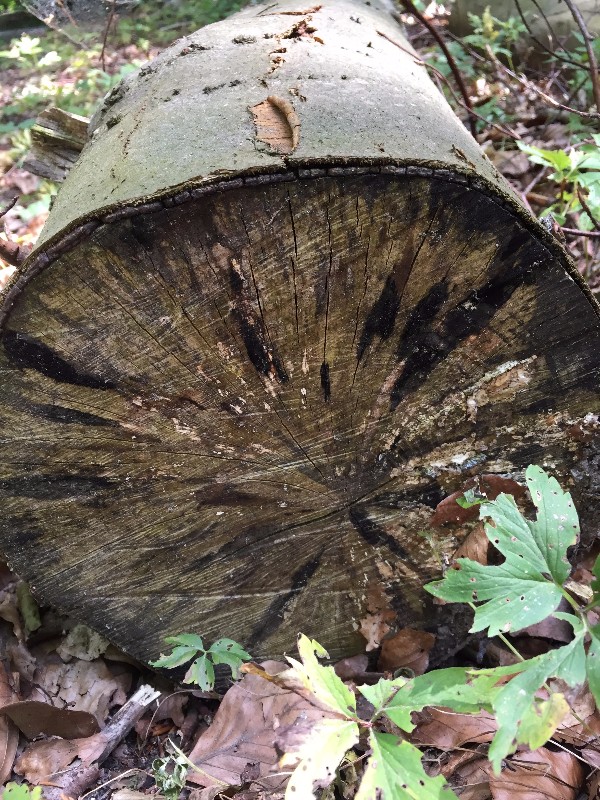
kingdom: Fungi
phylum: Ascomycota
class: Leotiomycetes
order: Helotiales
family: Helotiaceae
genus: Bispora
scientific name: Bispora pallescens
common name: måtte-snitskive
